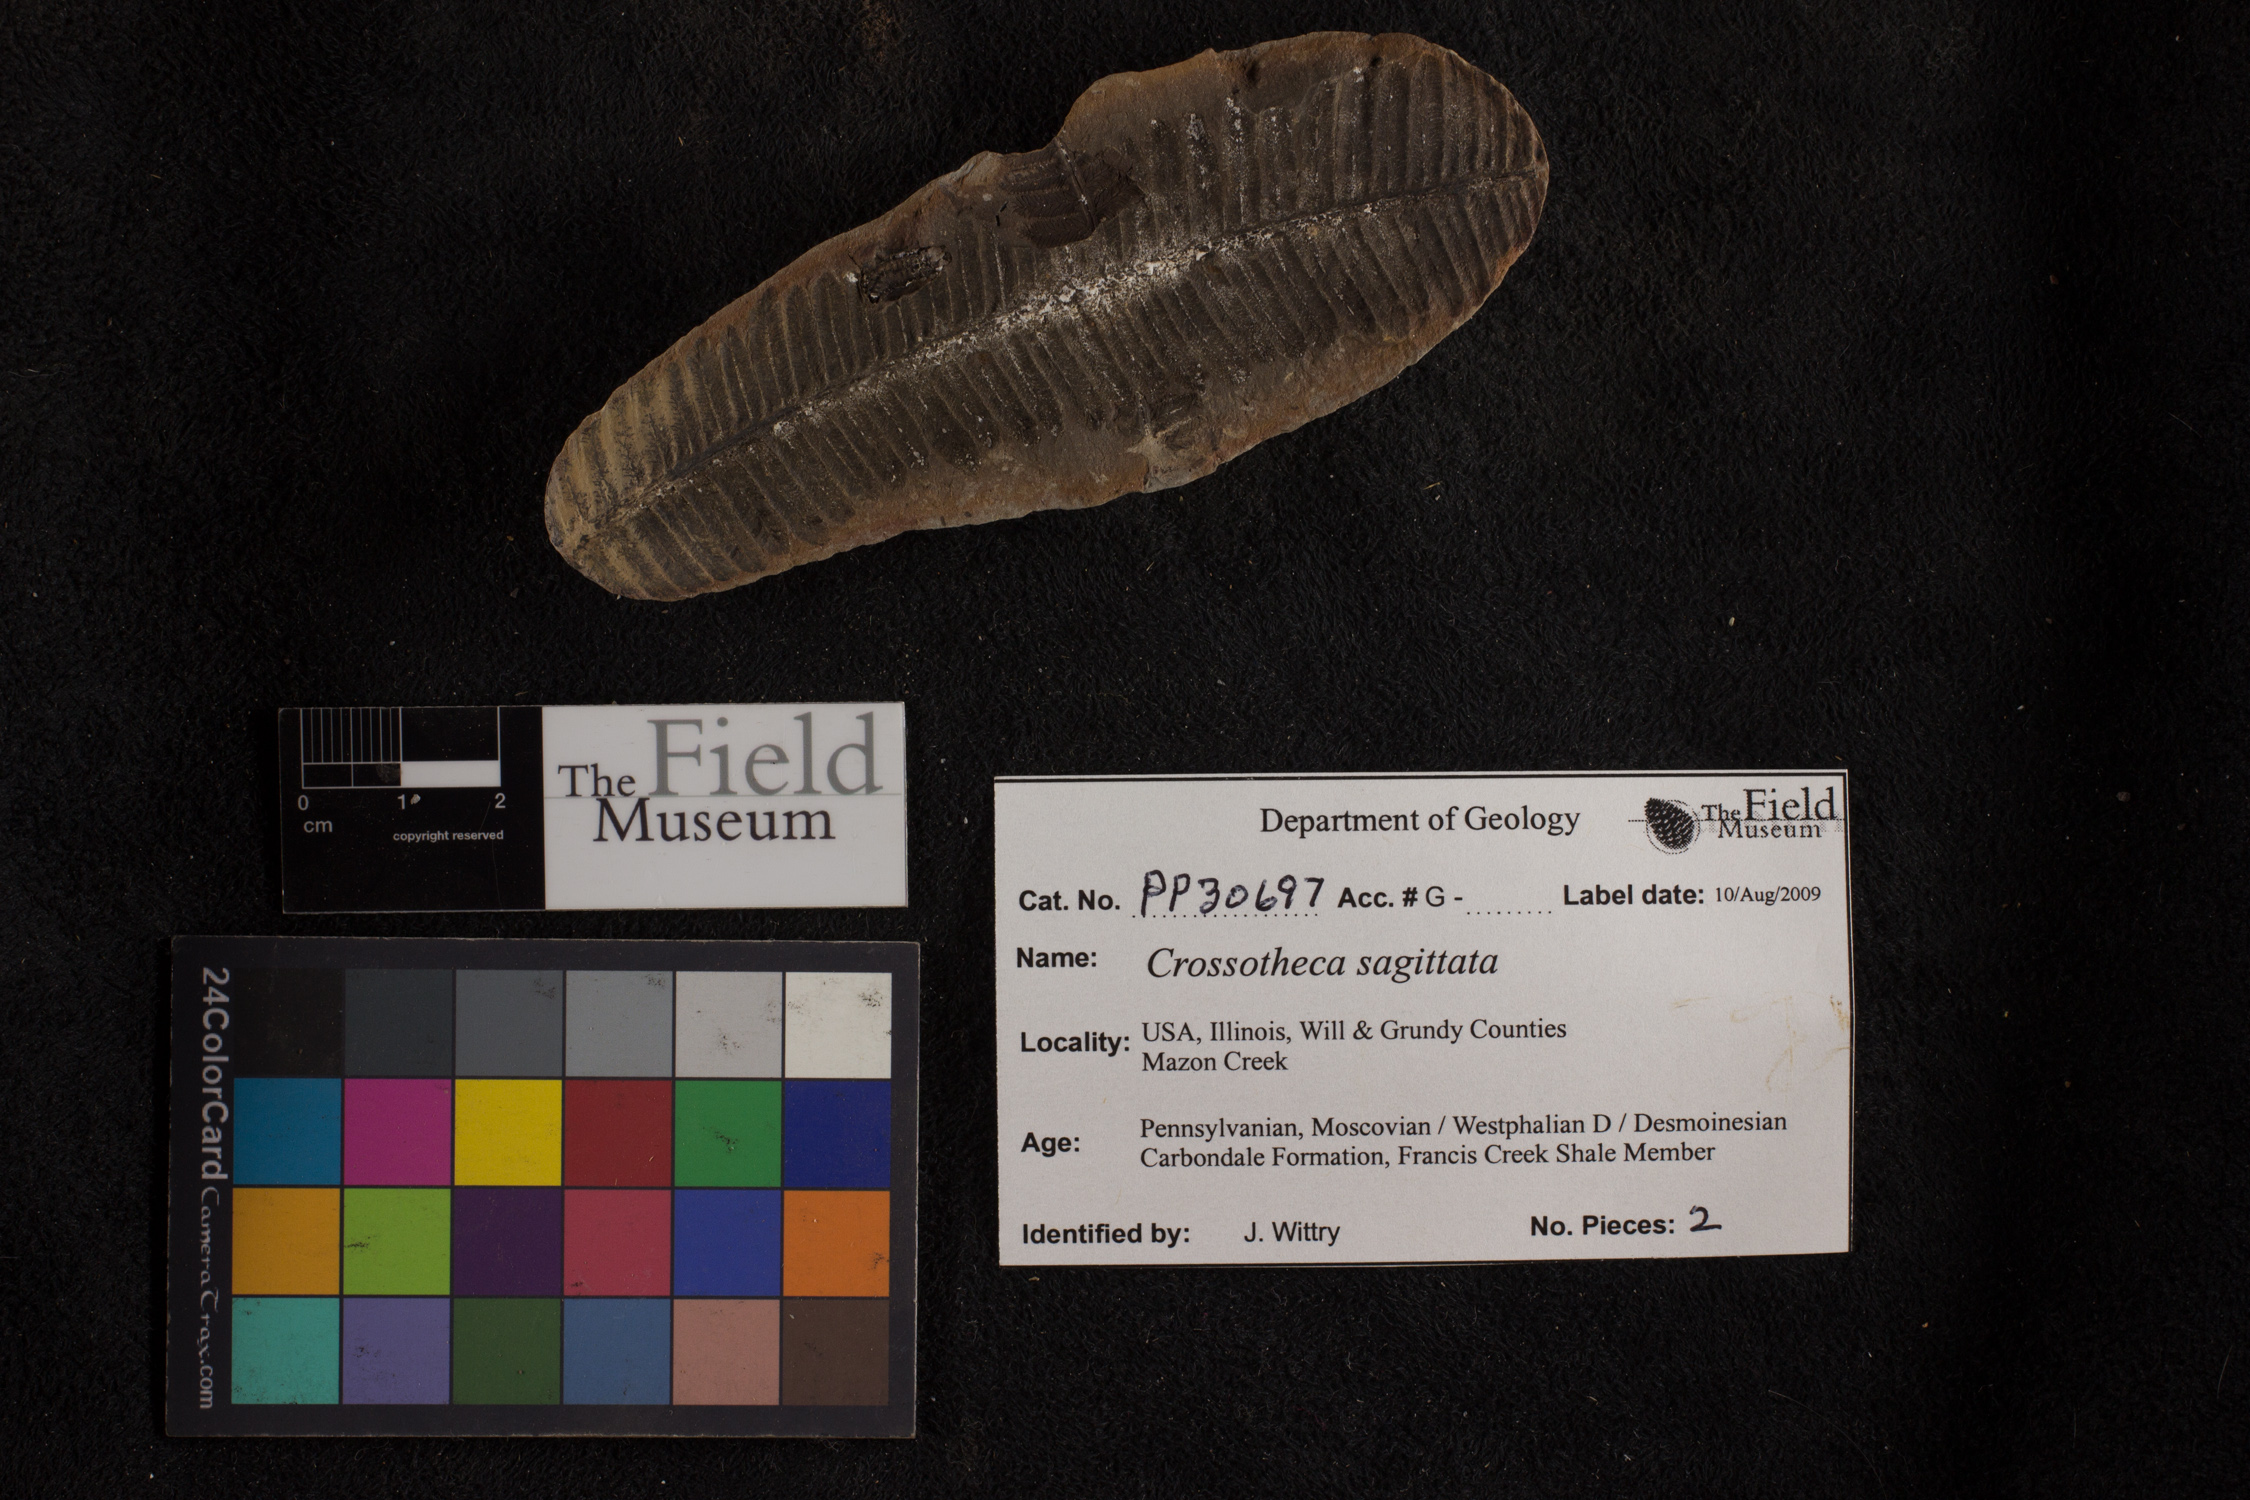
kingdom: Plantae
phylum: Tracheophyta
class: Polypodiopsida
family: Stauropteridaceae
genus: Crossotheca
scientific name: Crossotheca
